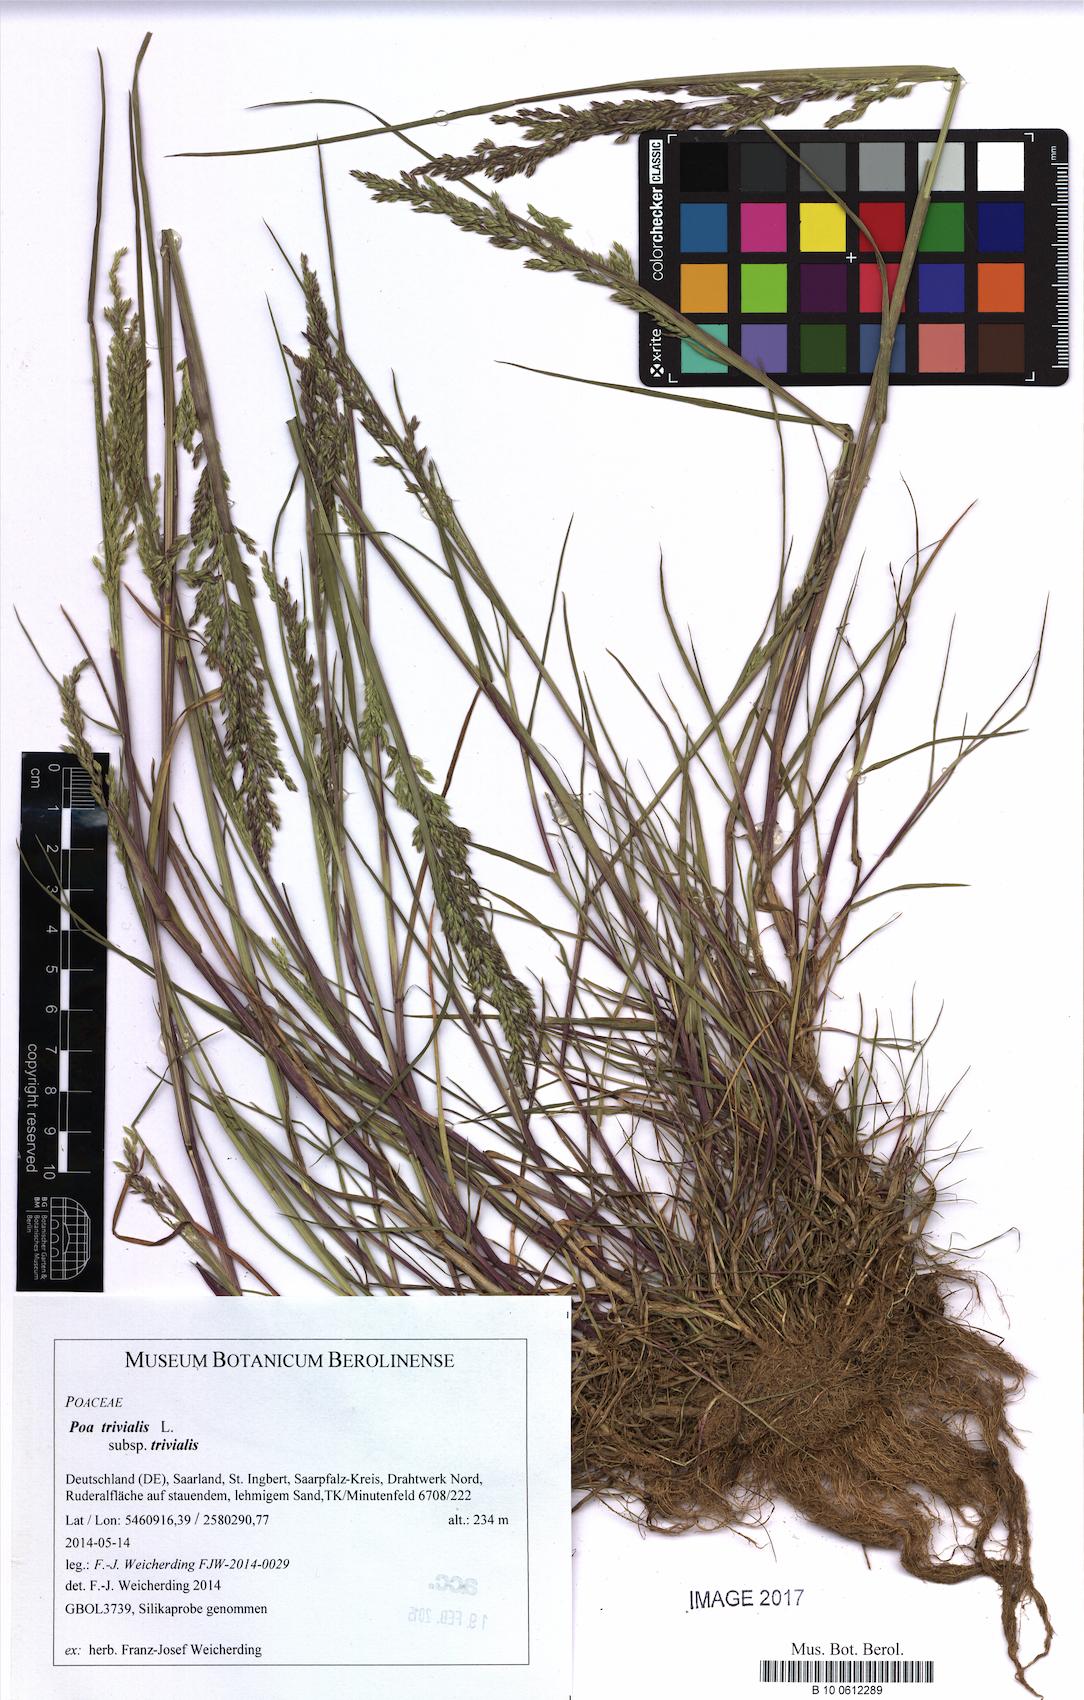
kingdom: Plantae
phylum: Tracheophyta
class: Liliopsida
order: Poales
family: Poaceae
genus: Poa
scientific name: Poa trivialis
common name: Rough bluegrass
